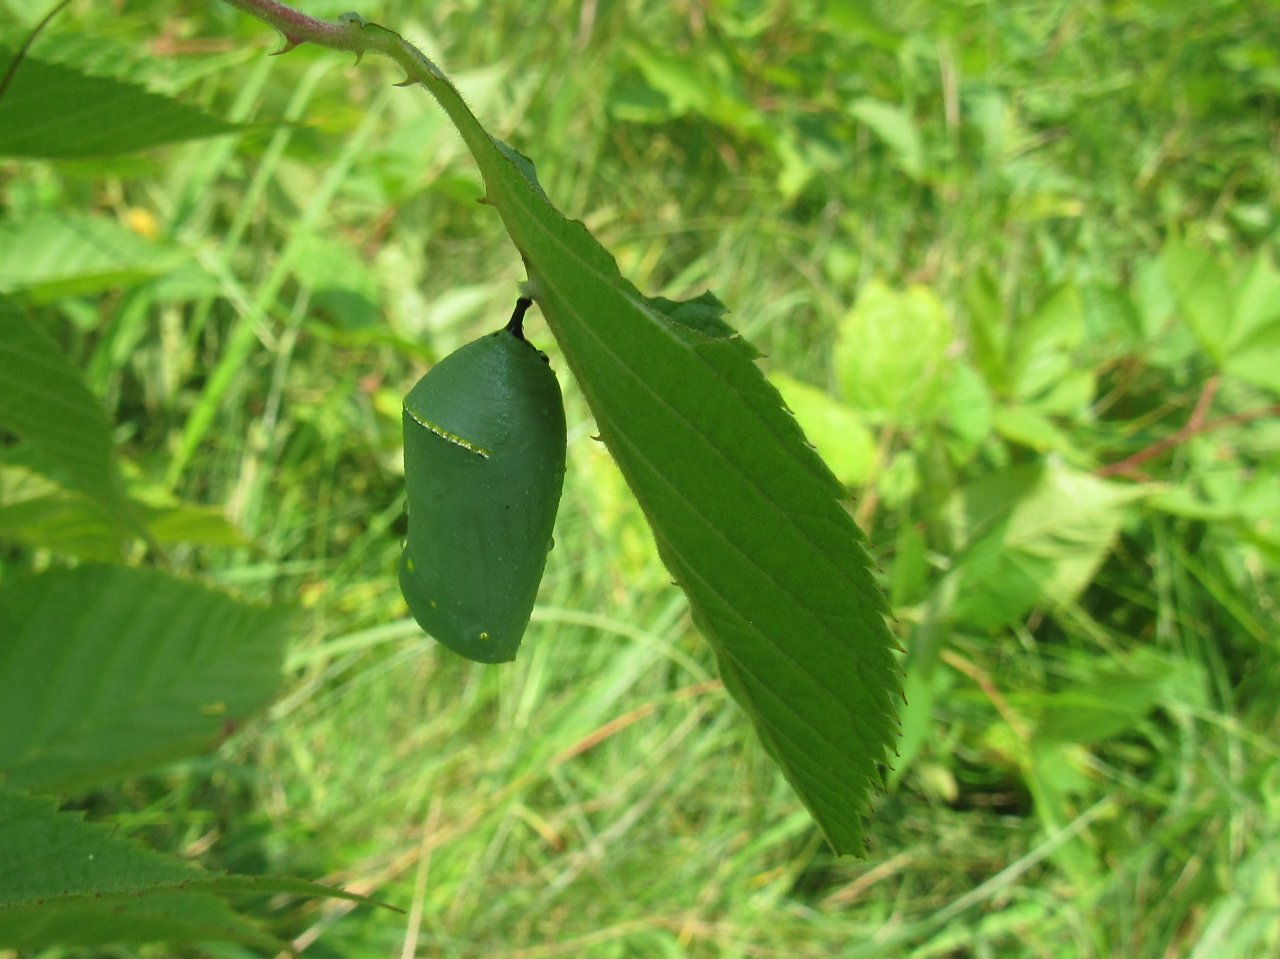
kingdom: Animalia
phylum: Arthropoda
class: Insecta
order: Lepidoptera
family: Nymphalidae
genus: Danaus
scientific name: Danaus plexippus
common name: Monarch
